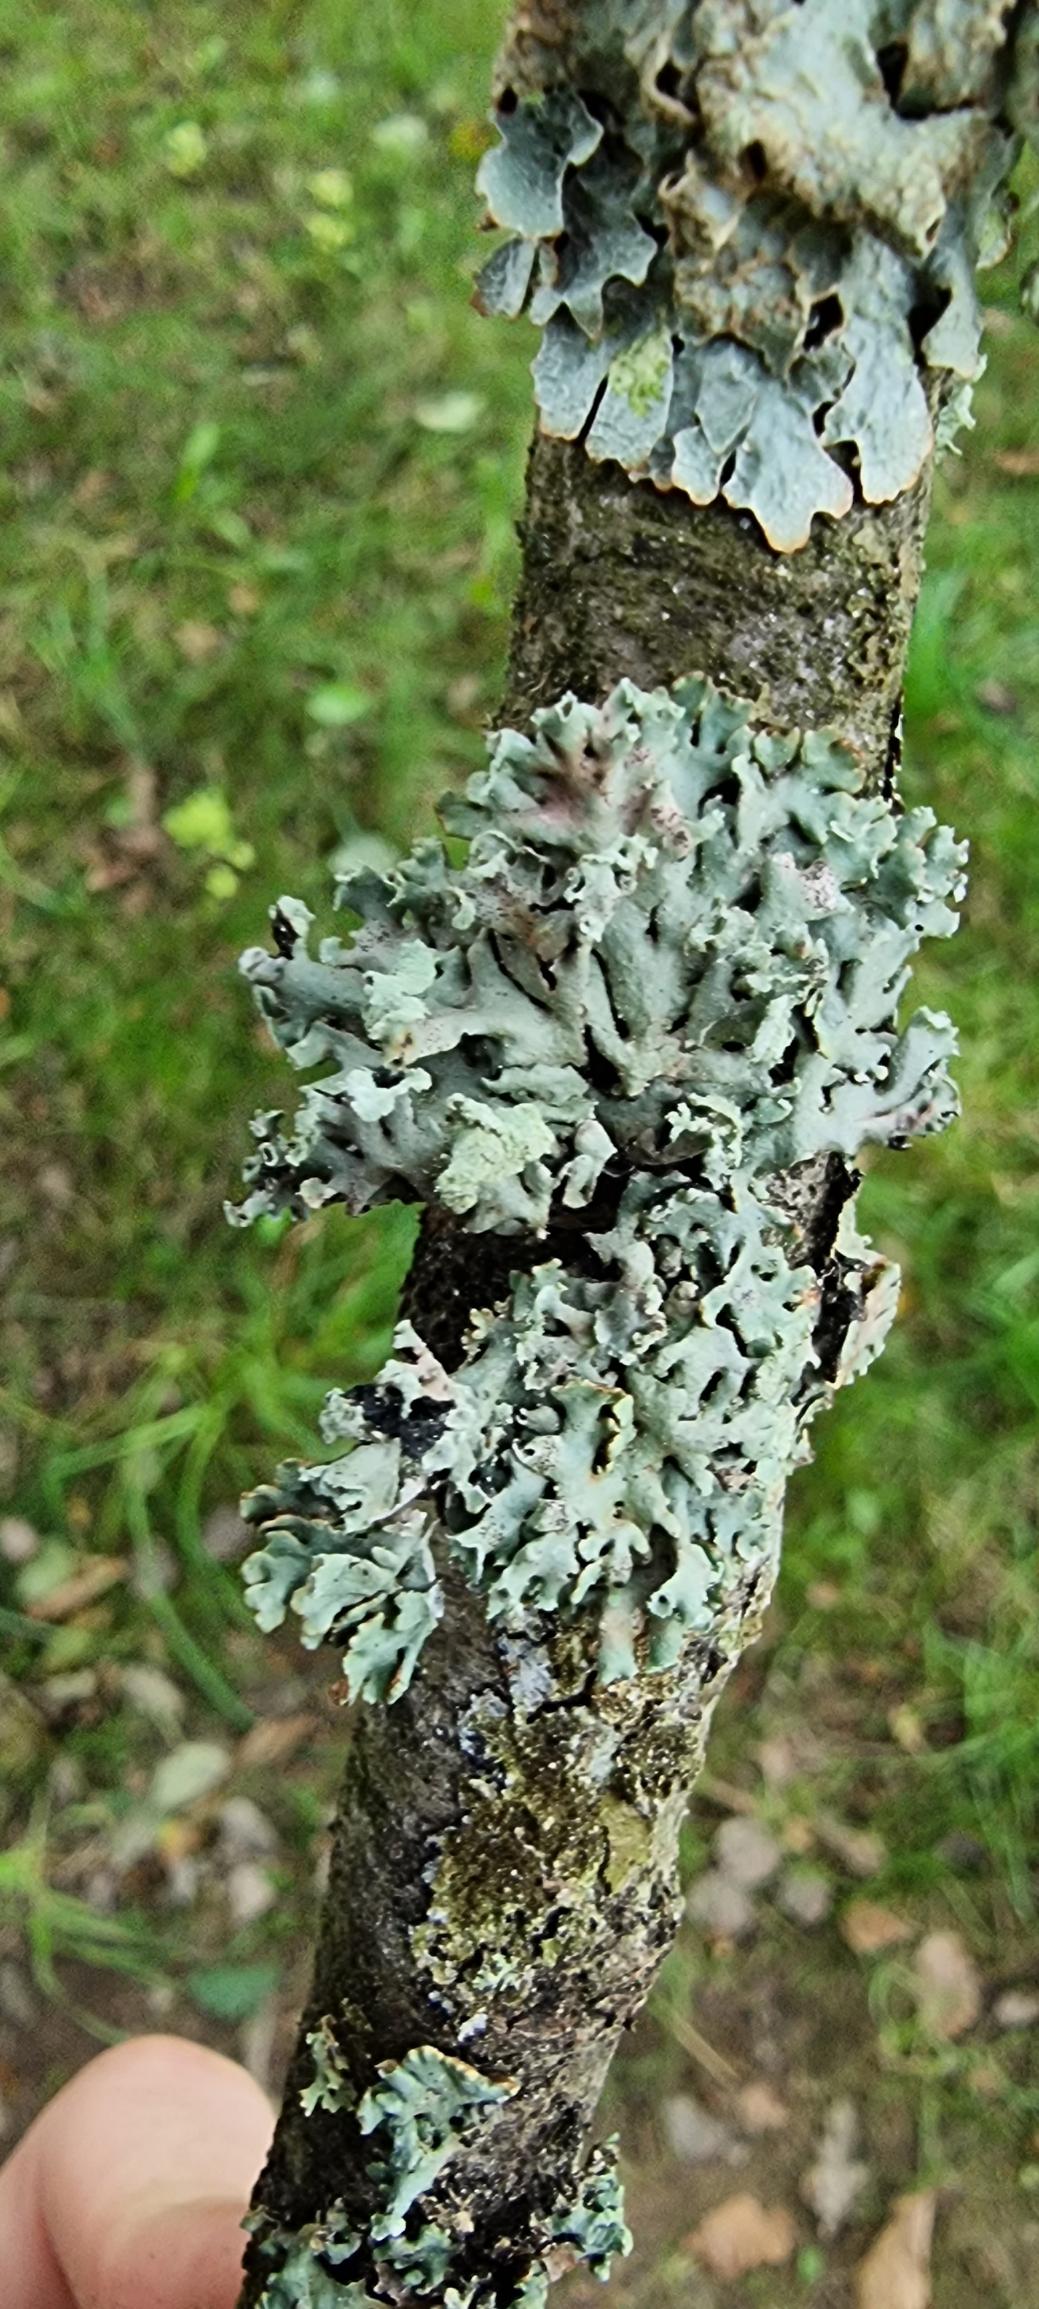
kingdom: Fungi
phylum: Ascomycota
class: Lecanoromycetes
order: Lecanorales
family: Parmeliaceae
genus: Hypogymnia
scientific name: Hypogymnia physodes
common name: Almindelig kvistlav
